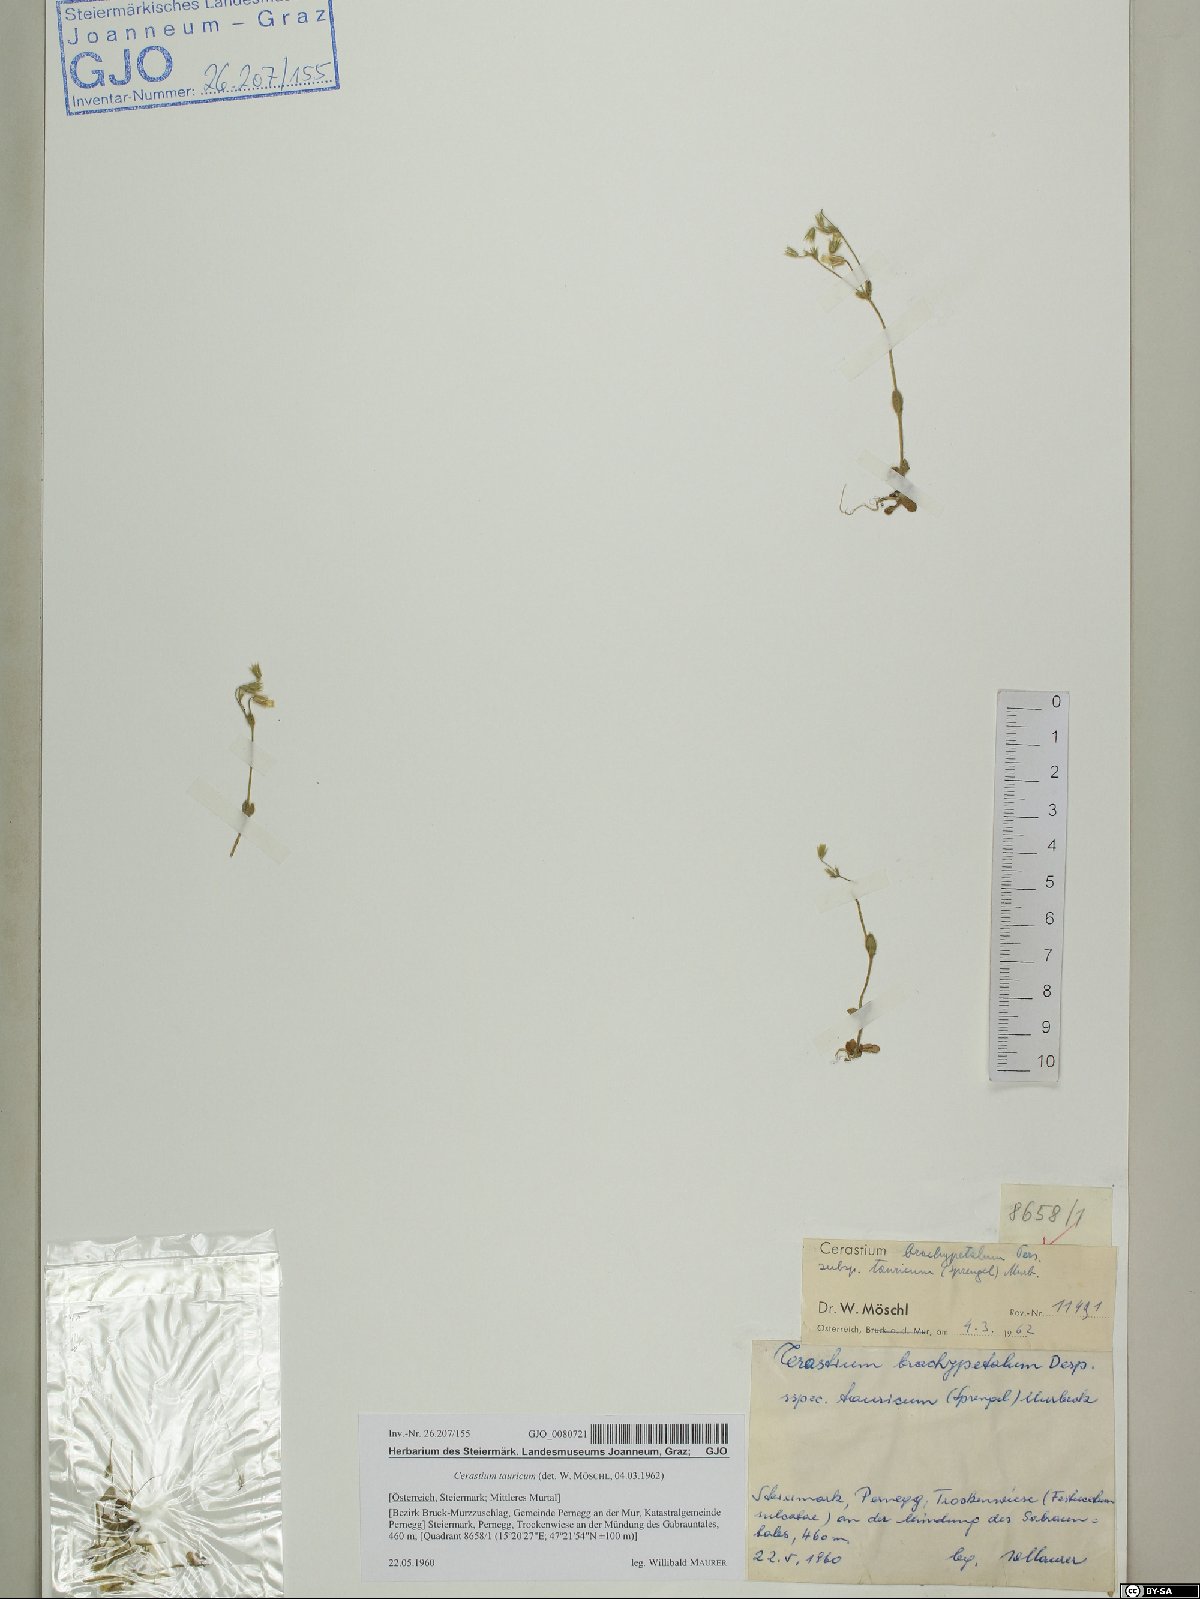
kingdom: Plantae
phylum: Tracheophyta
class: Magnoliopsida
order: Caryophyllales
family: Caryophyllaceae
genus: Cerastium
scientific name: Cerastium brachypetalum
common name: Grey mouse-ear
